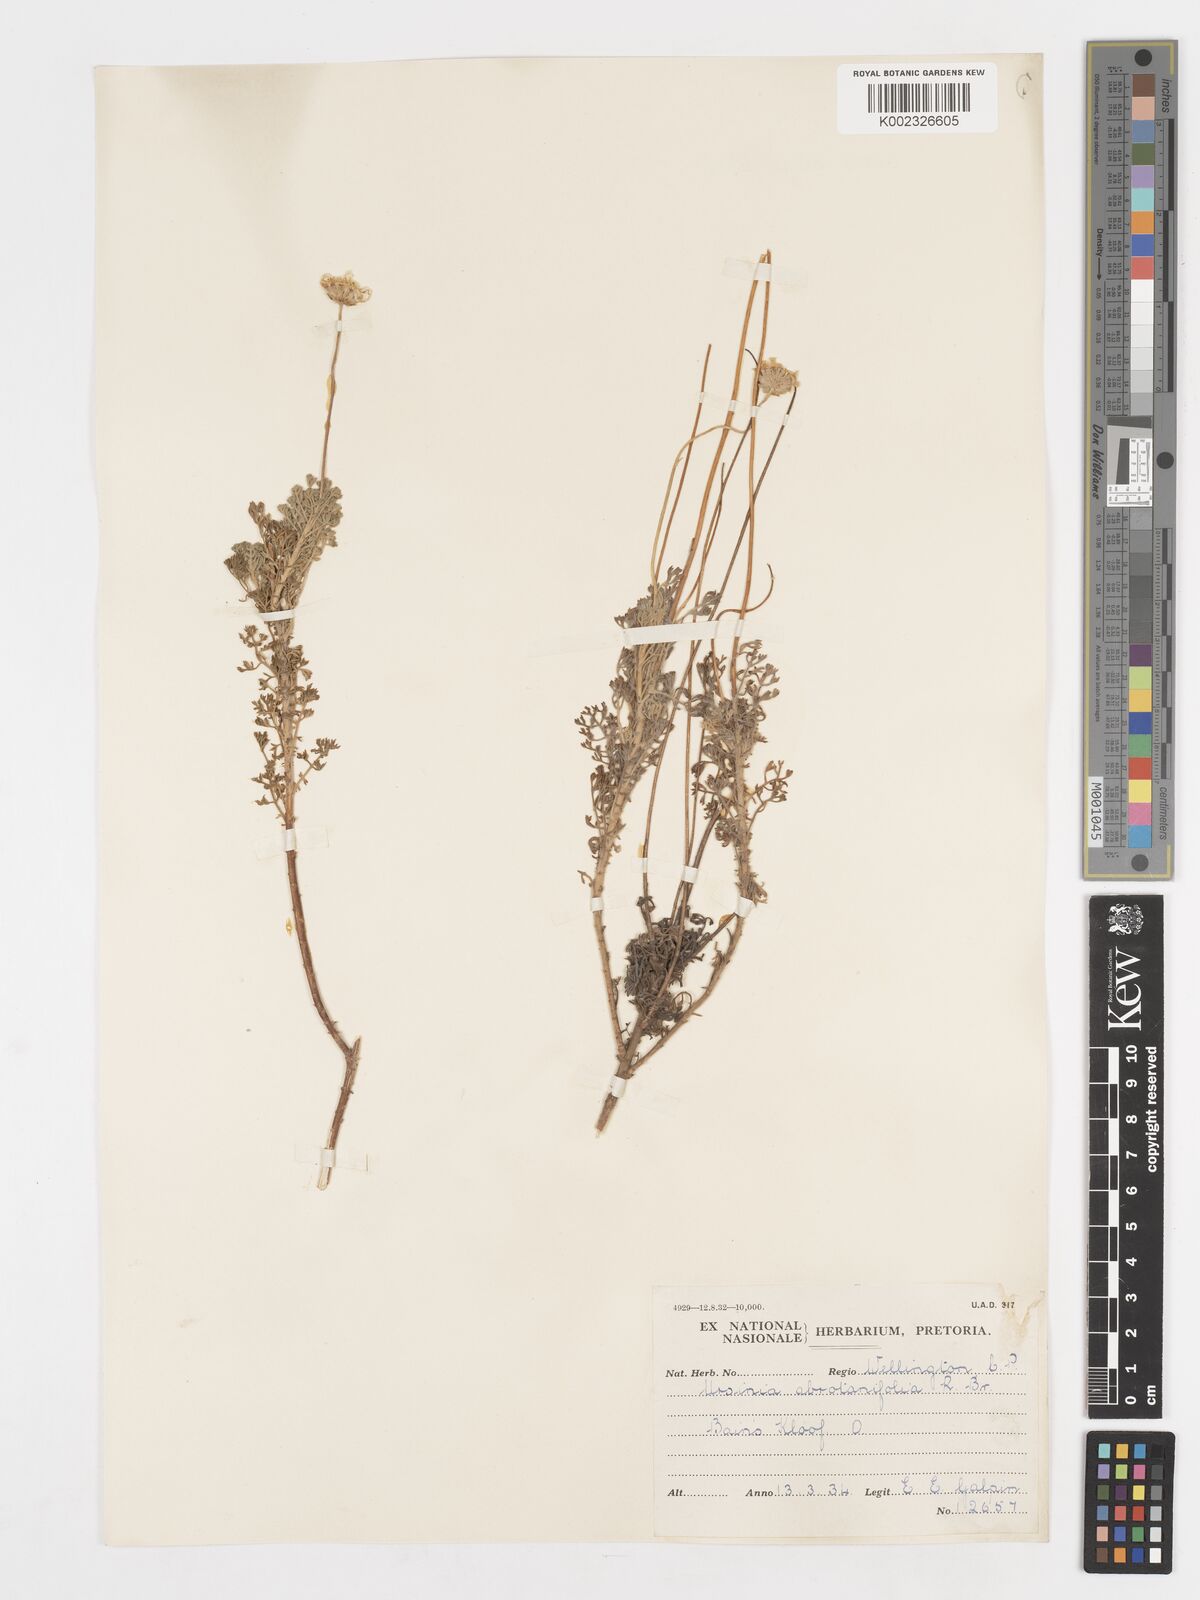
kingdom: Plantae
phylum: Tracheophyta
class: Magnoliopsida
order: Asterales
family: Asteraceae
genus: Ursinia
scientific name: Ursinia abrotanifolia
